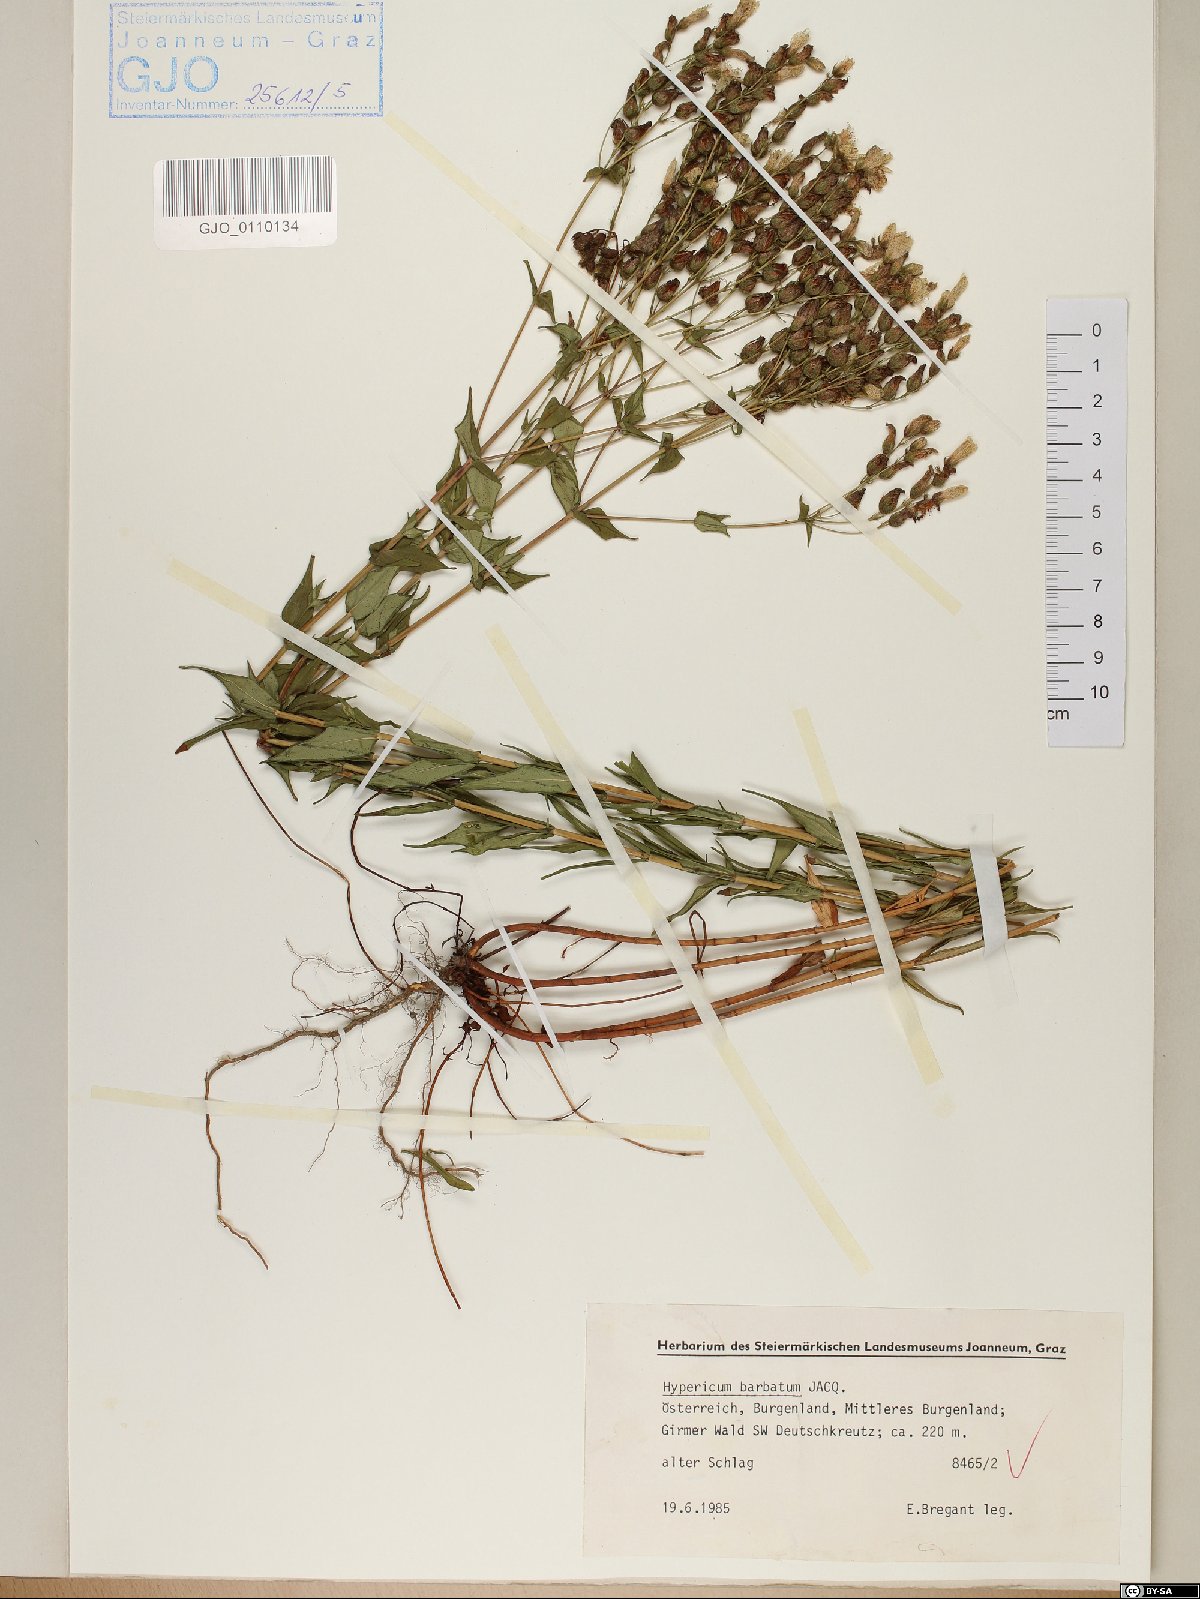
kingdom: Plantae
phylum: Tracheophyta
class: Magnoliopsida
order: Malpighiales
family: Hypericaceae
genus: Hypericum
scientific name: Hypericum barbatum
